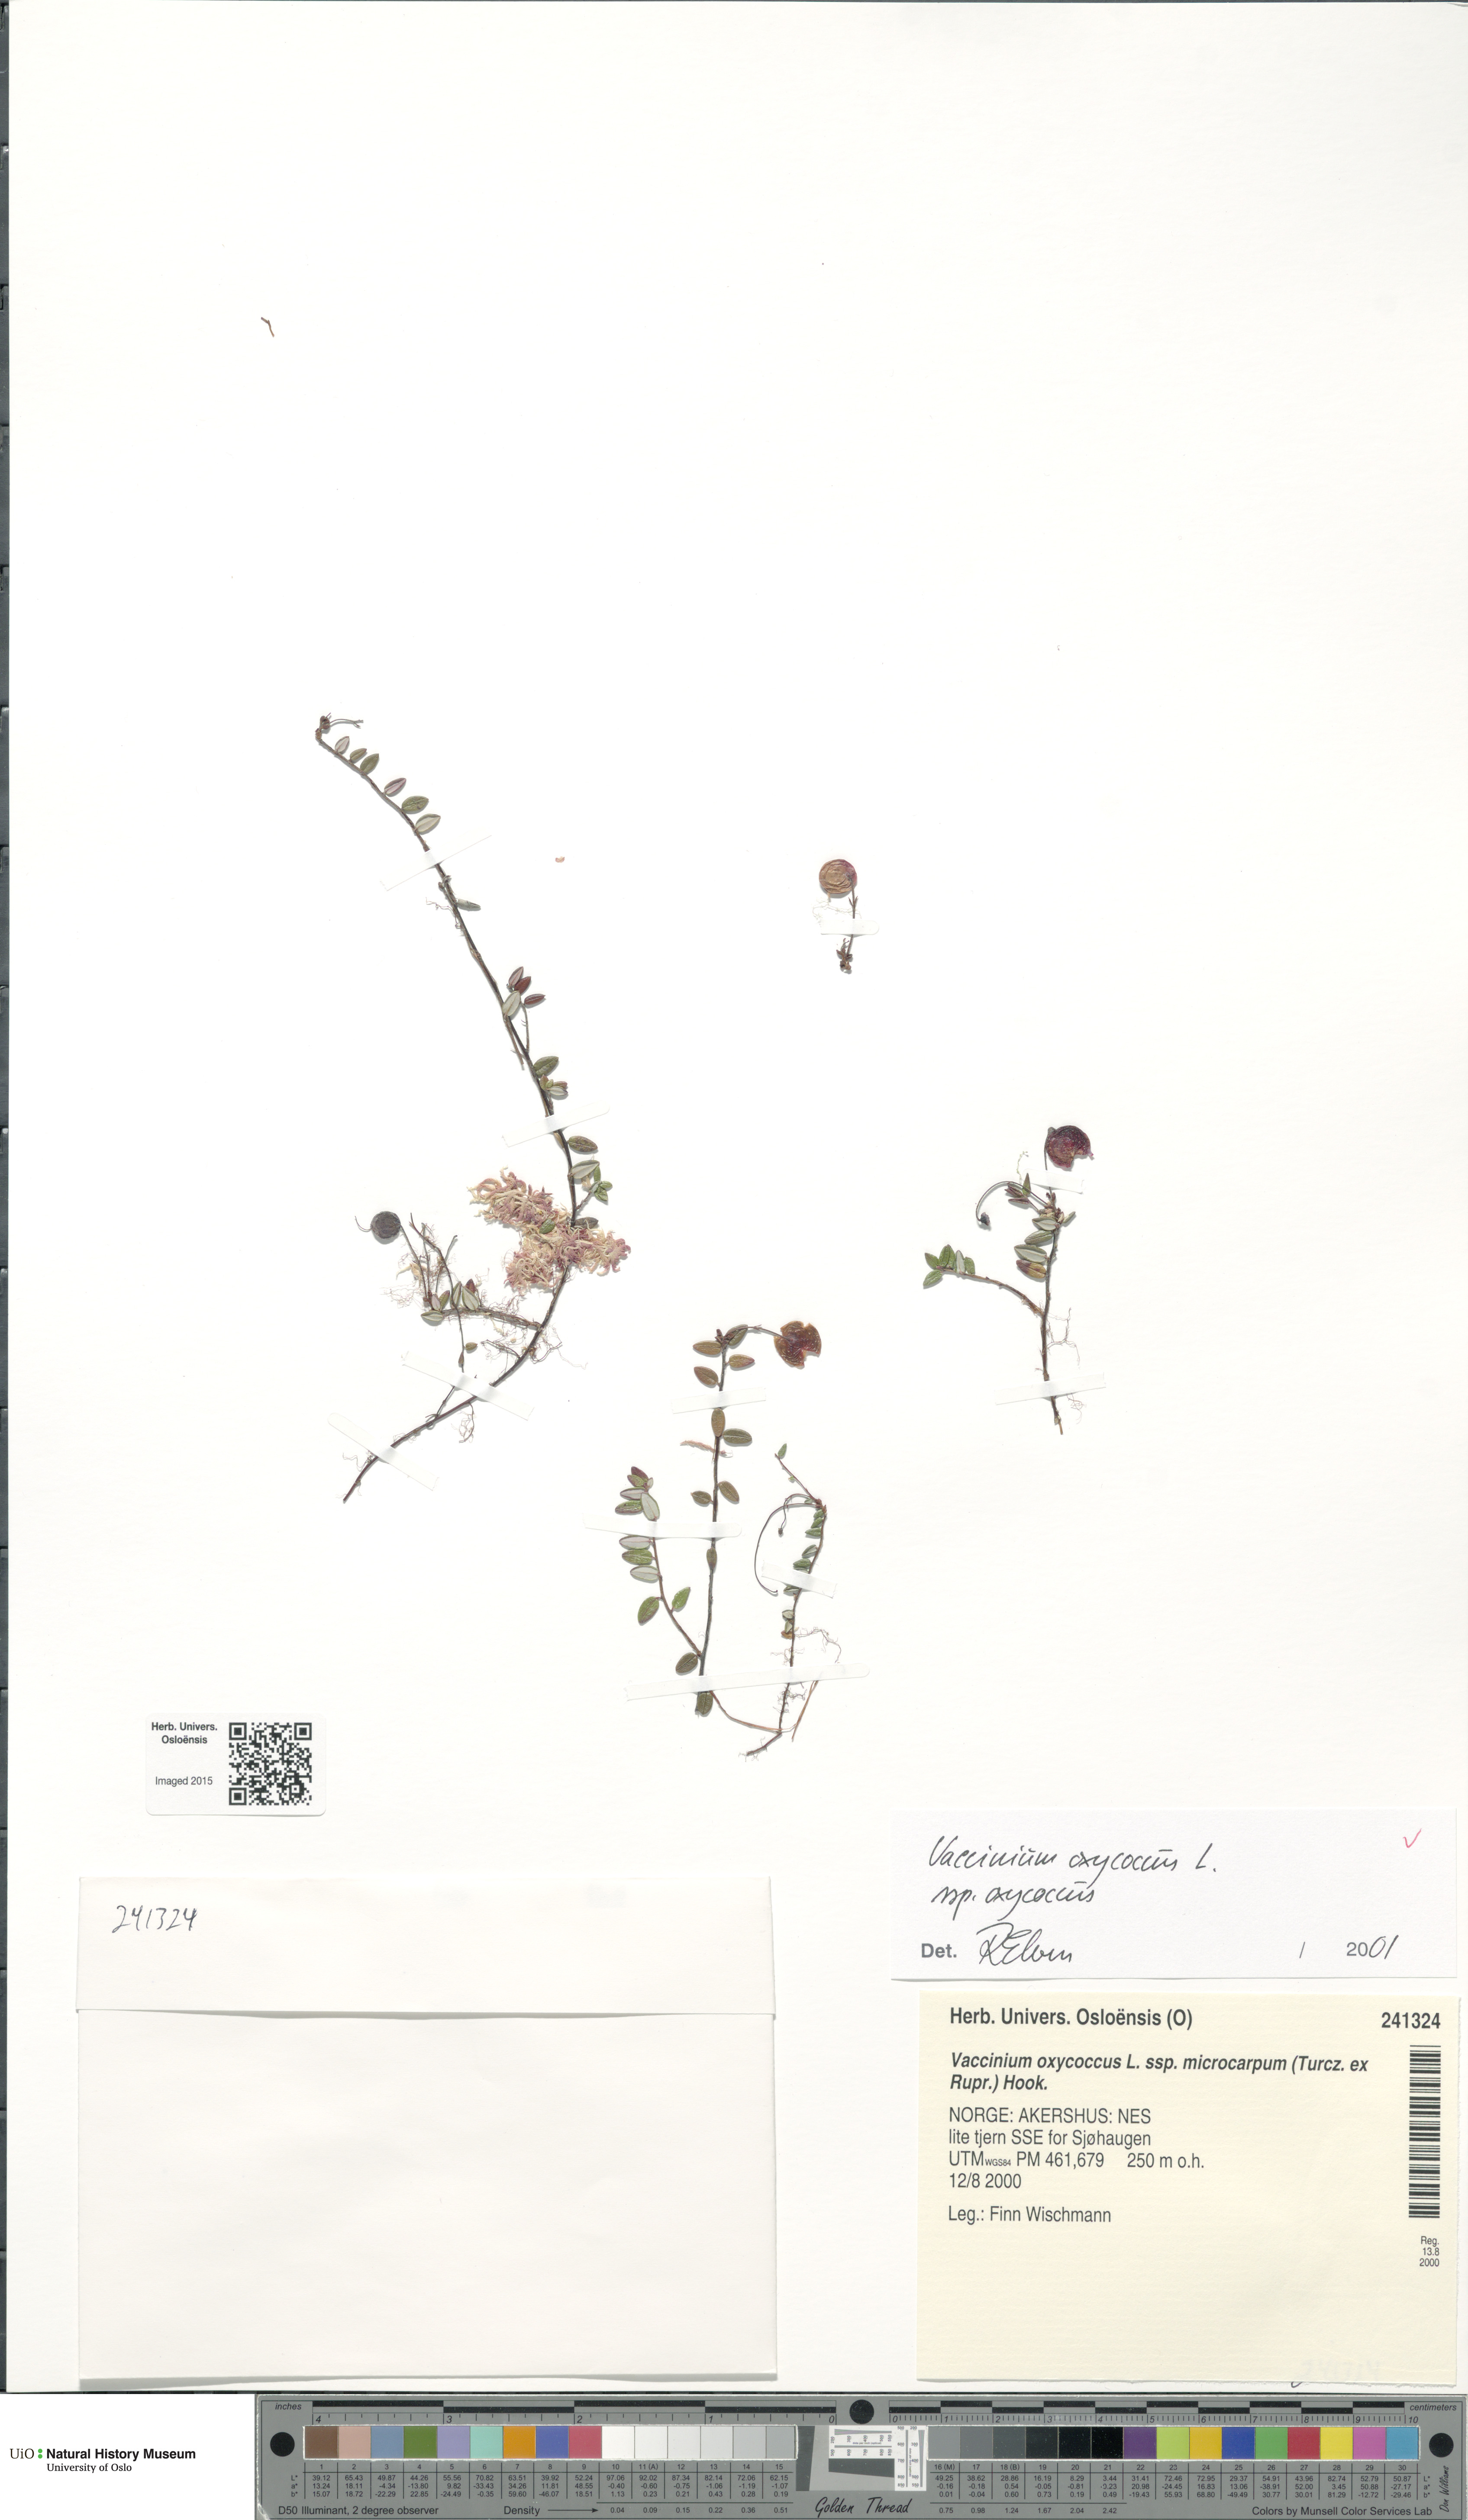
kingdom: Plantae
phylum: Tracheophyta
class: Magnoliopsida
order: Ericales
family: Ericaceae
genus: Vaccinium
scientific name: Vaccinium oxycoccos
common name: Cranberry
